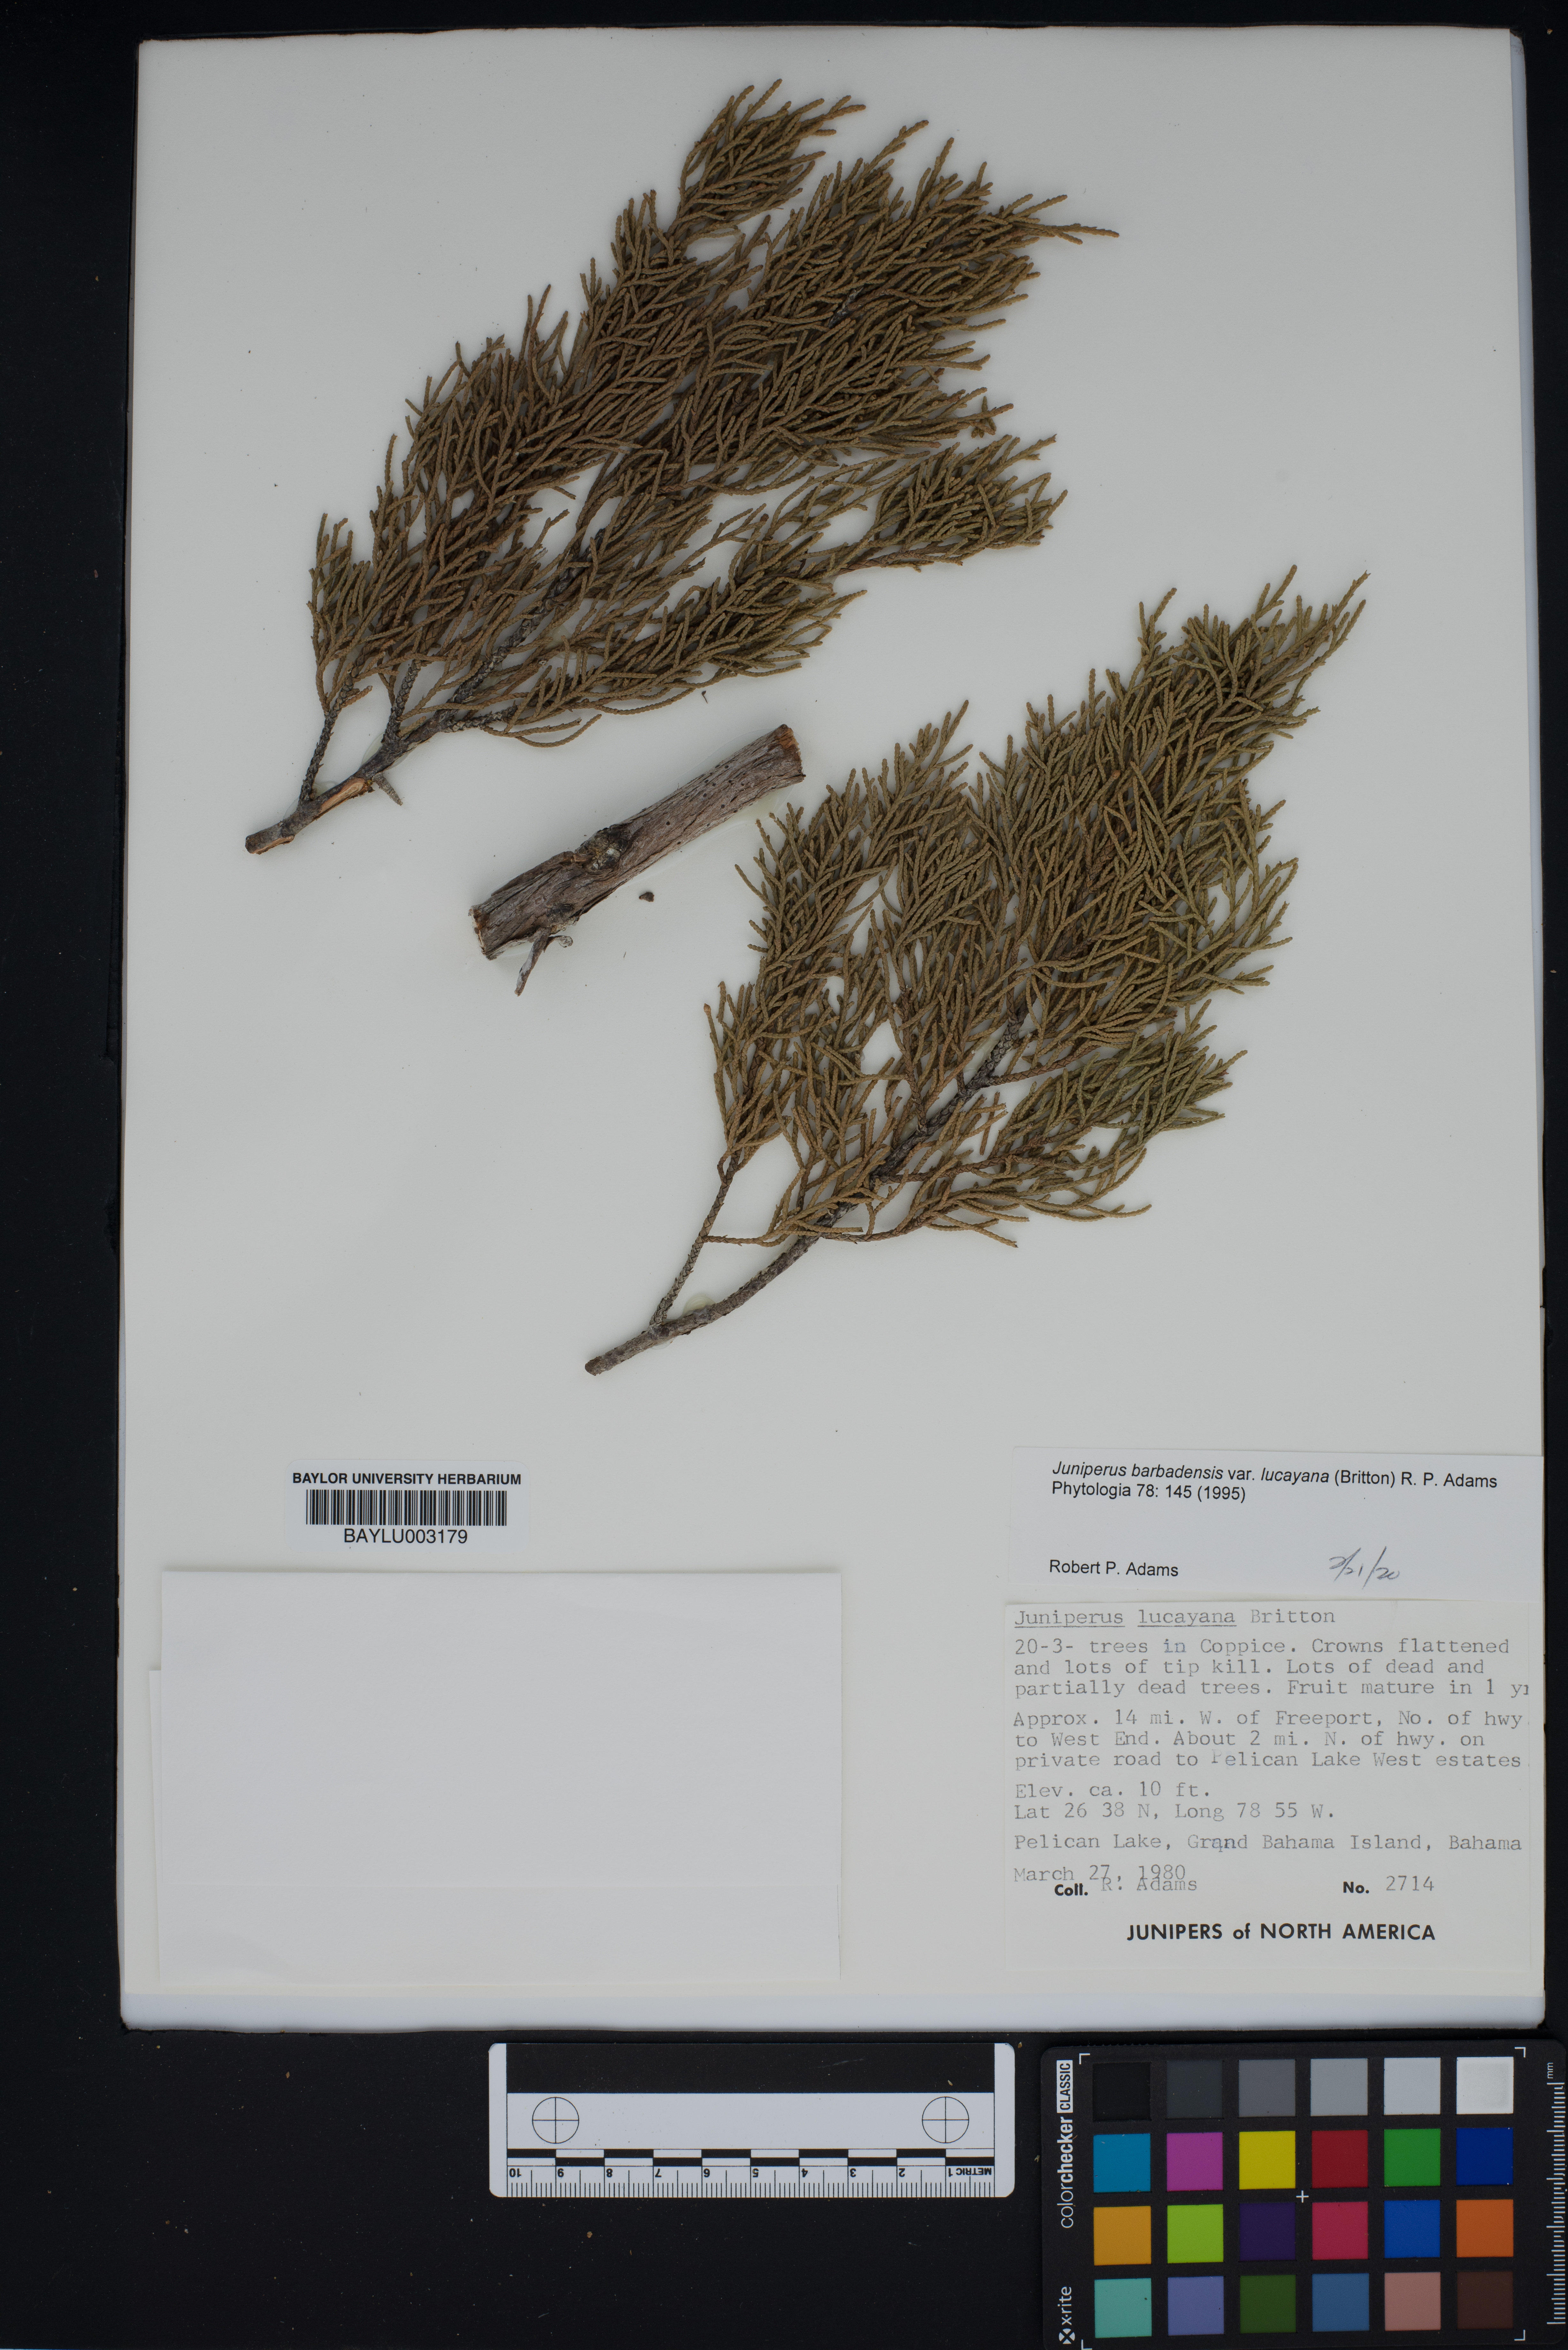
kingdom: Plantae
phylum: Tracheophyta
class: Pinopsida
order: Pinales
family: Cupressaceae
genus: Juniperus
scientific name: Juniperus barbadensis
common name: West indies juniper
